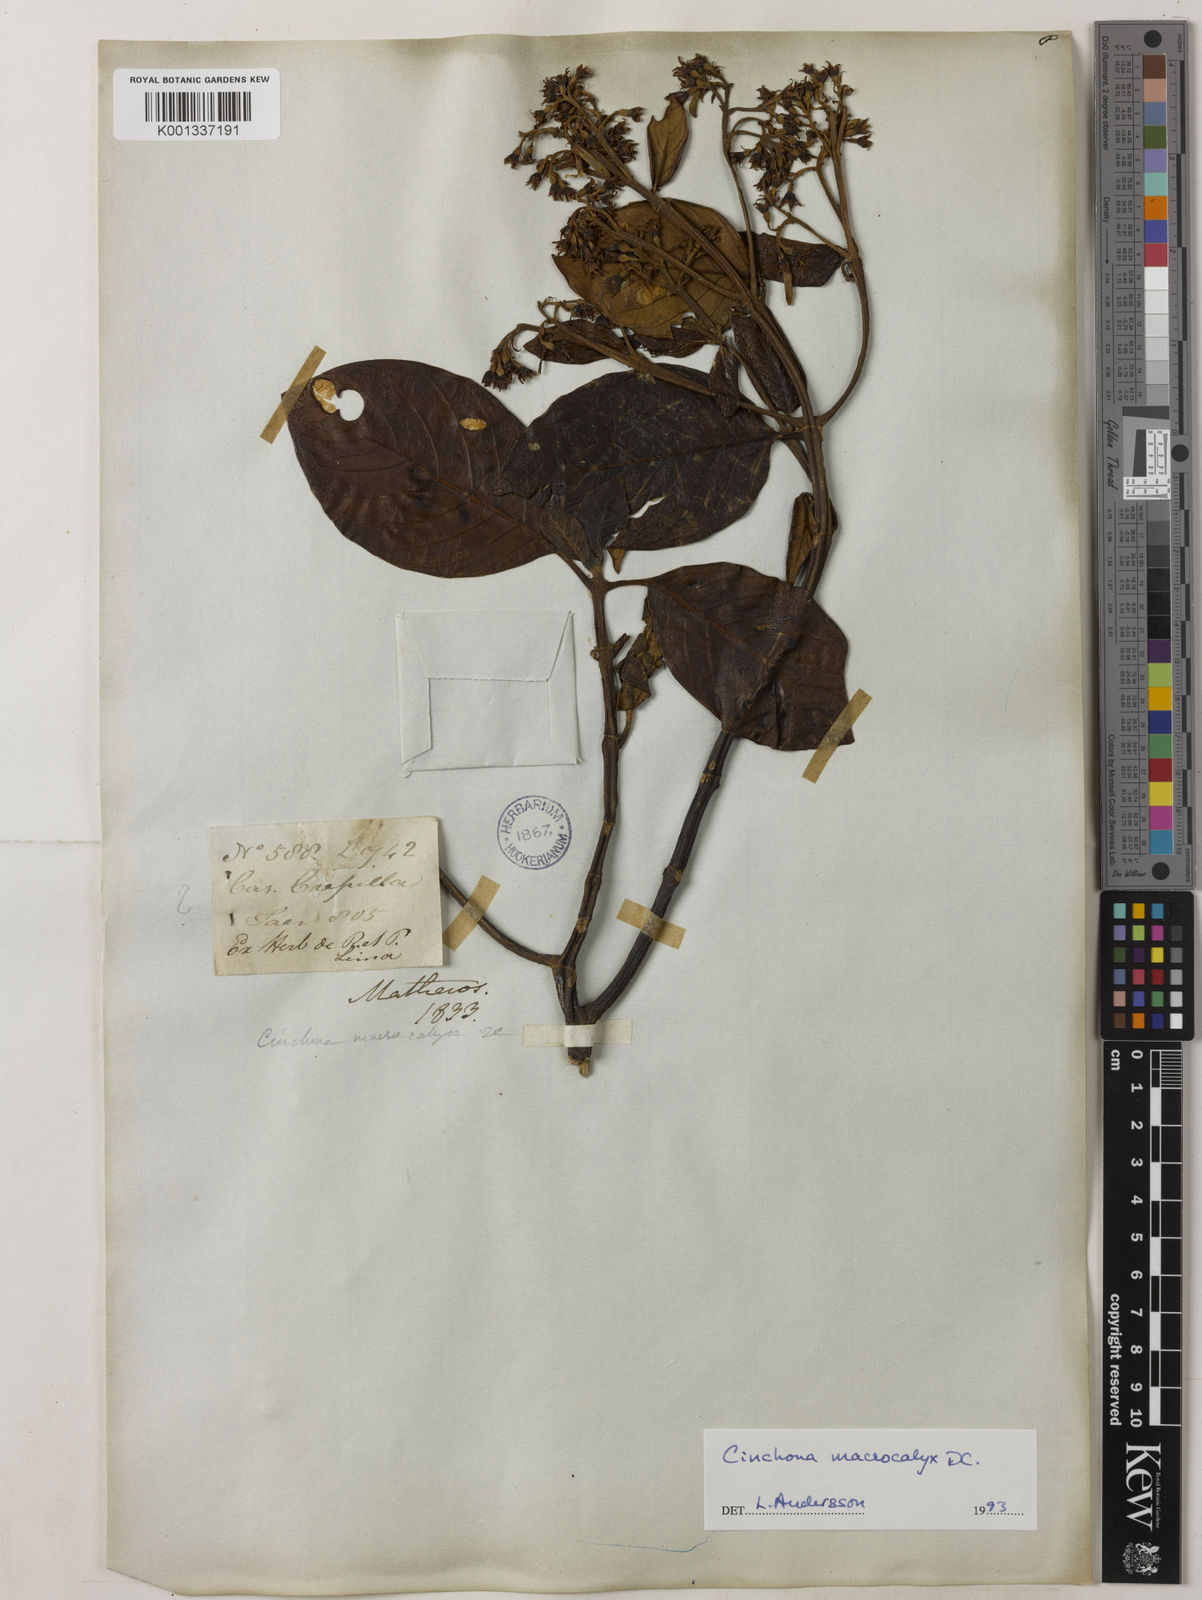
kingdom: Plantae
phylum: Tracheophyta
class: Magnoliopsida
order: Gentianales
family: Rubiaceae
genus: Cinchona
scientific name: Cinchona macrocalyx
